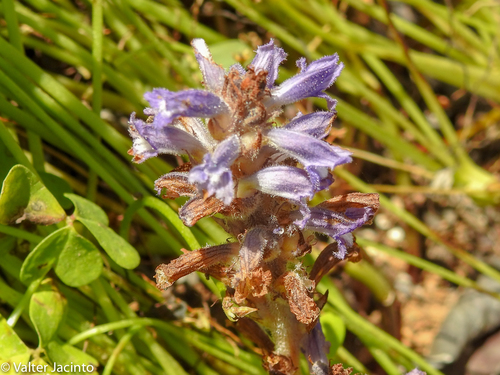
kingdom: Plantae
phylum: Tracheophyta
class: Magnoliopsida
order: Lamiales
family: Orobanchaceae
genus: Phelipanche
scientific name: Phelipanche mutelii
